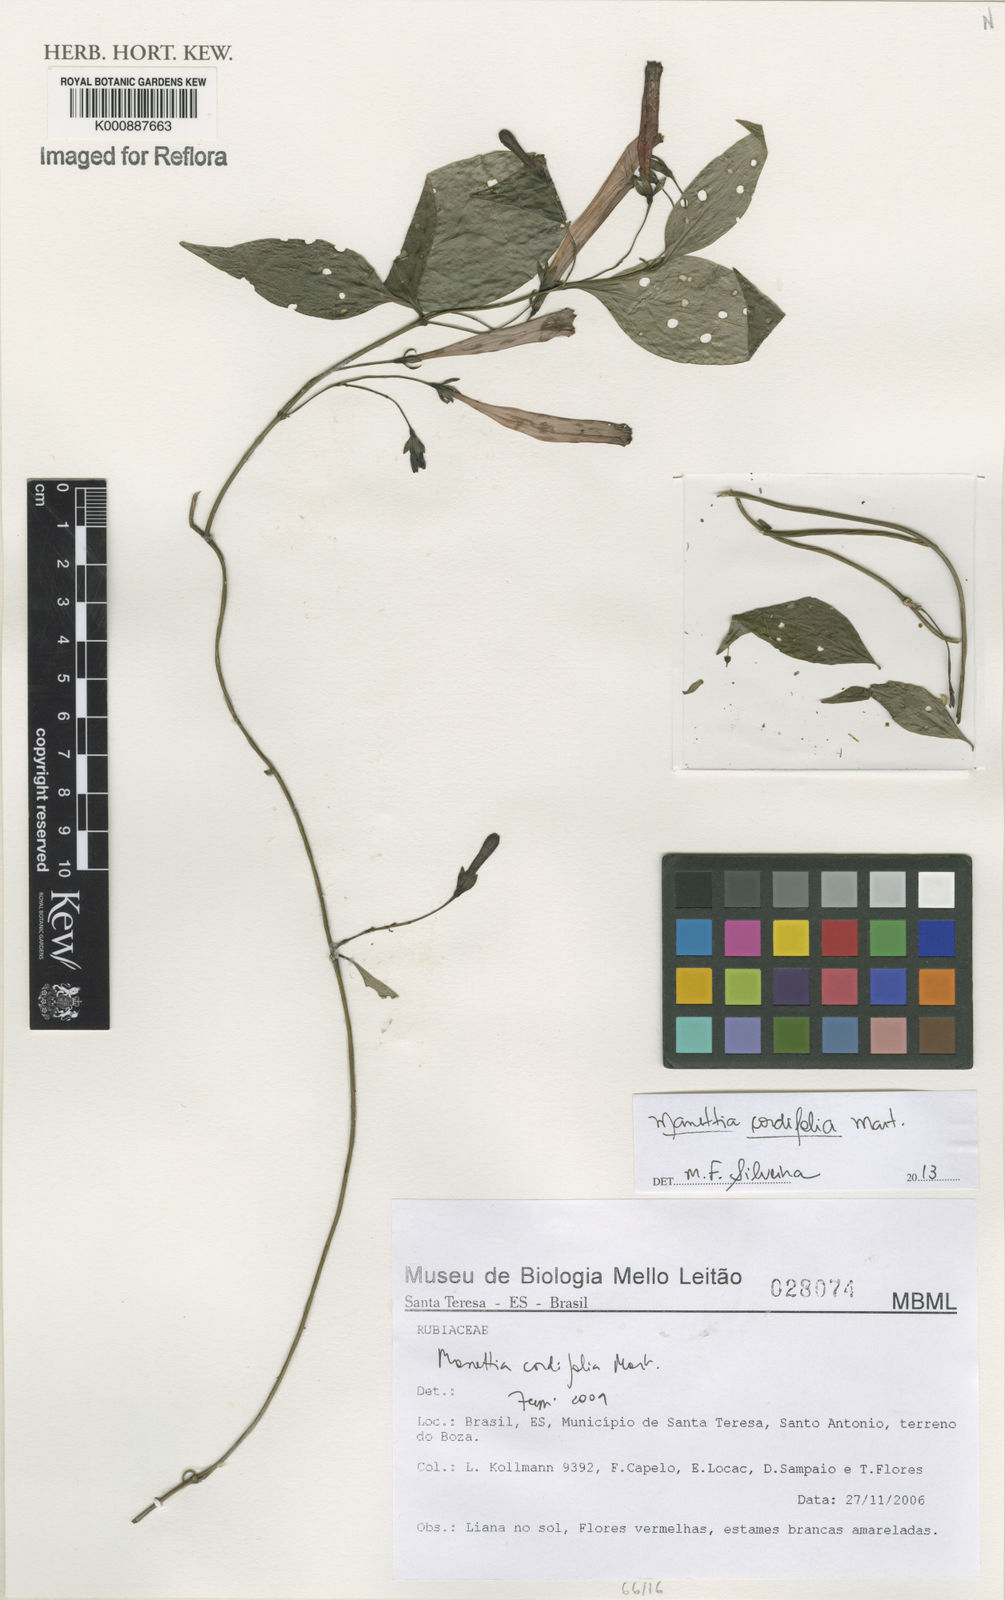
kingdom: Plantae
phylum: Tracheophyta
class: Magnoliopsida
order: Gentianales
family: Rubiaceae
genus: Manettia
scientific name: Manettia
